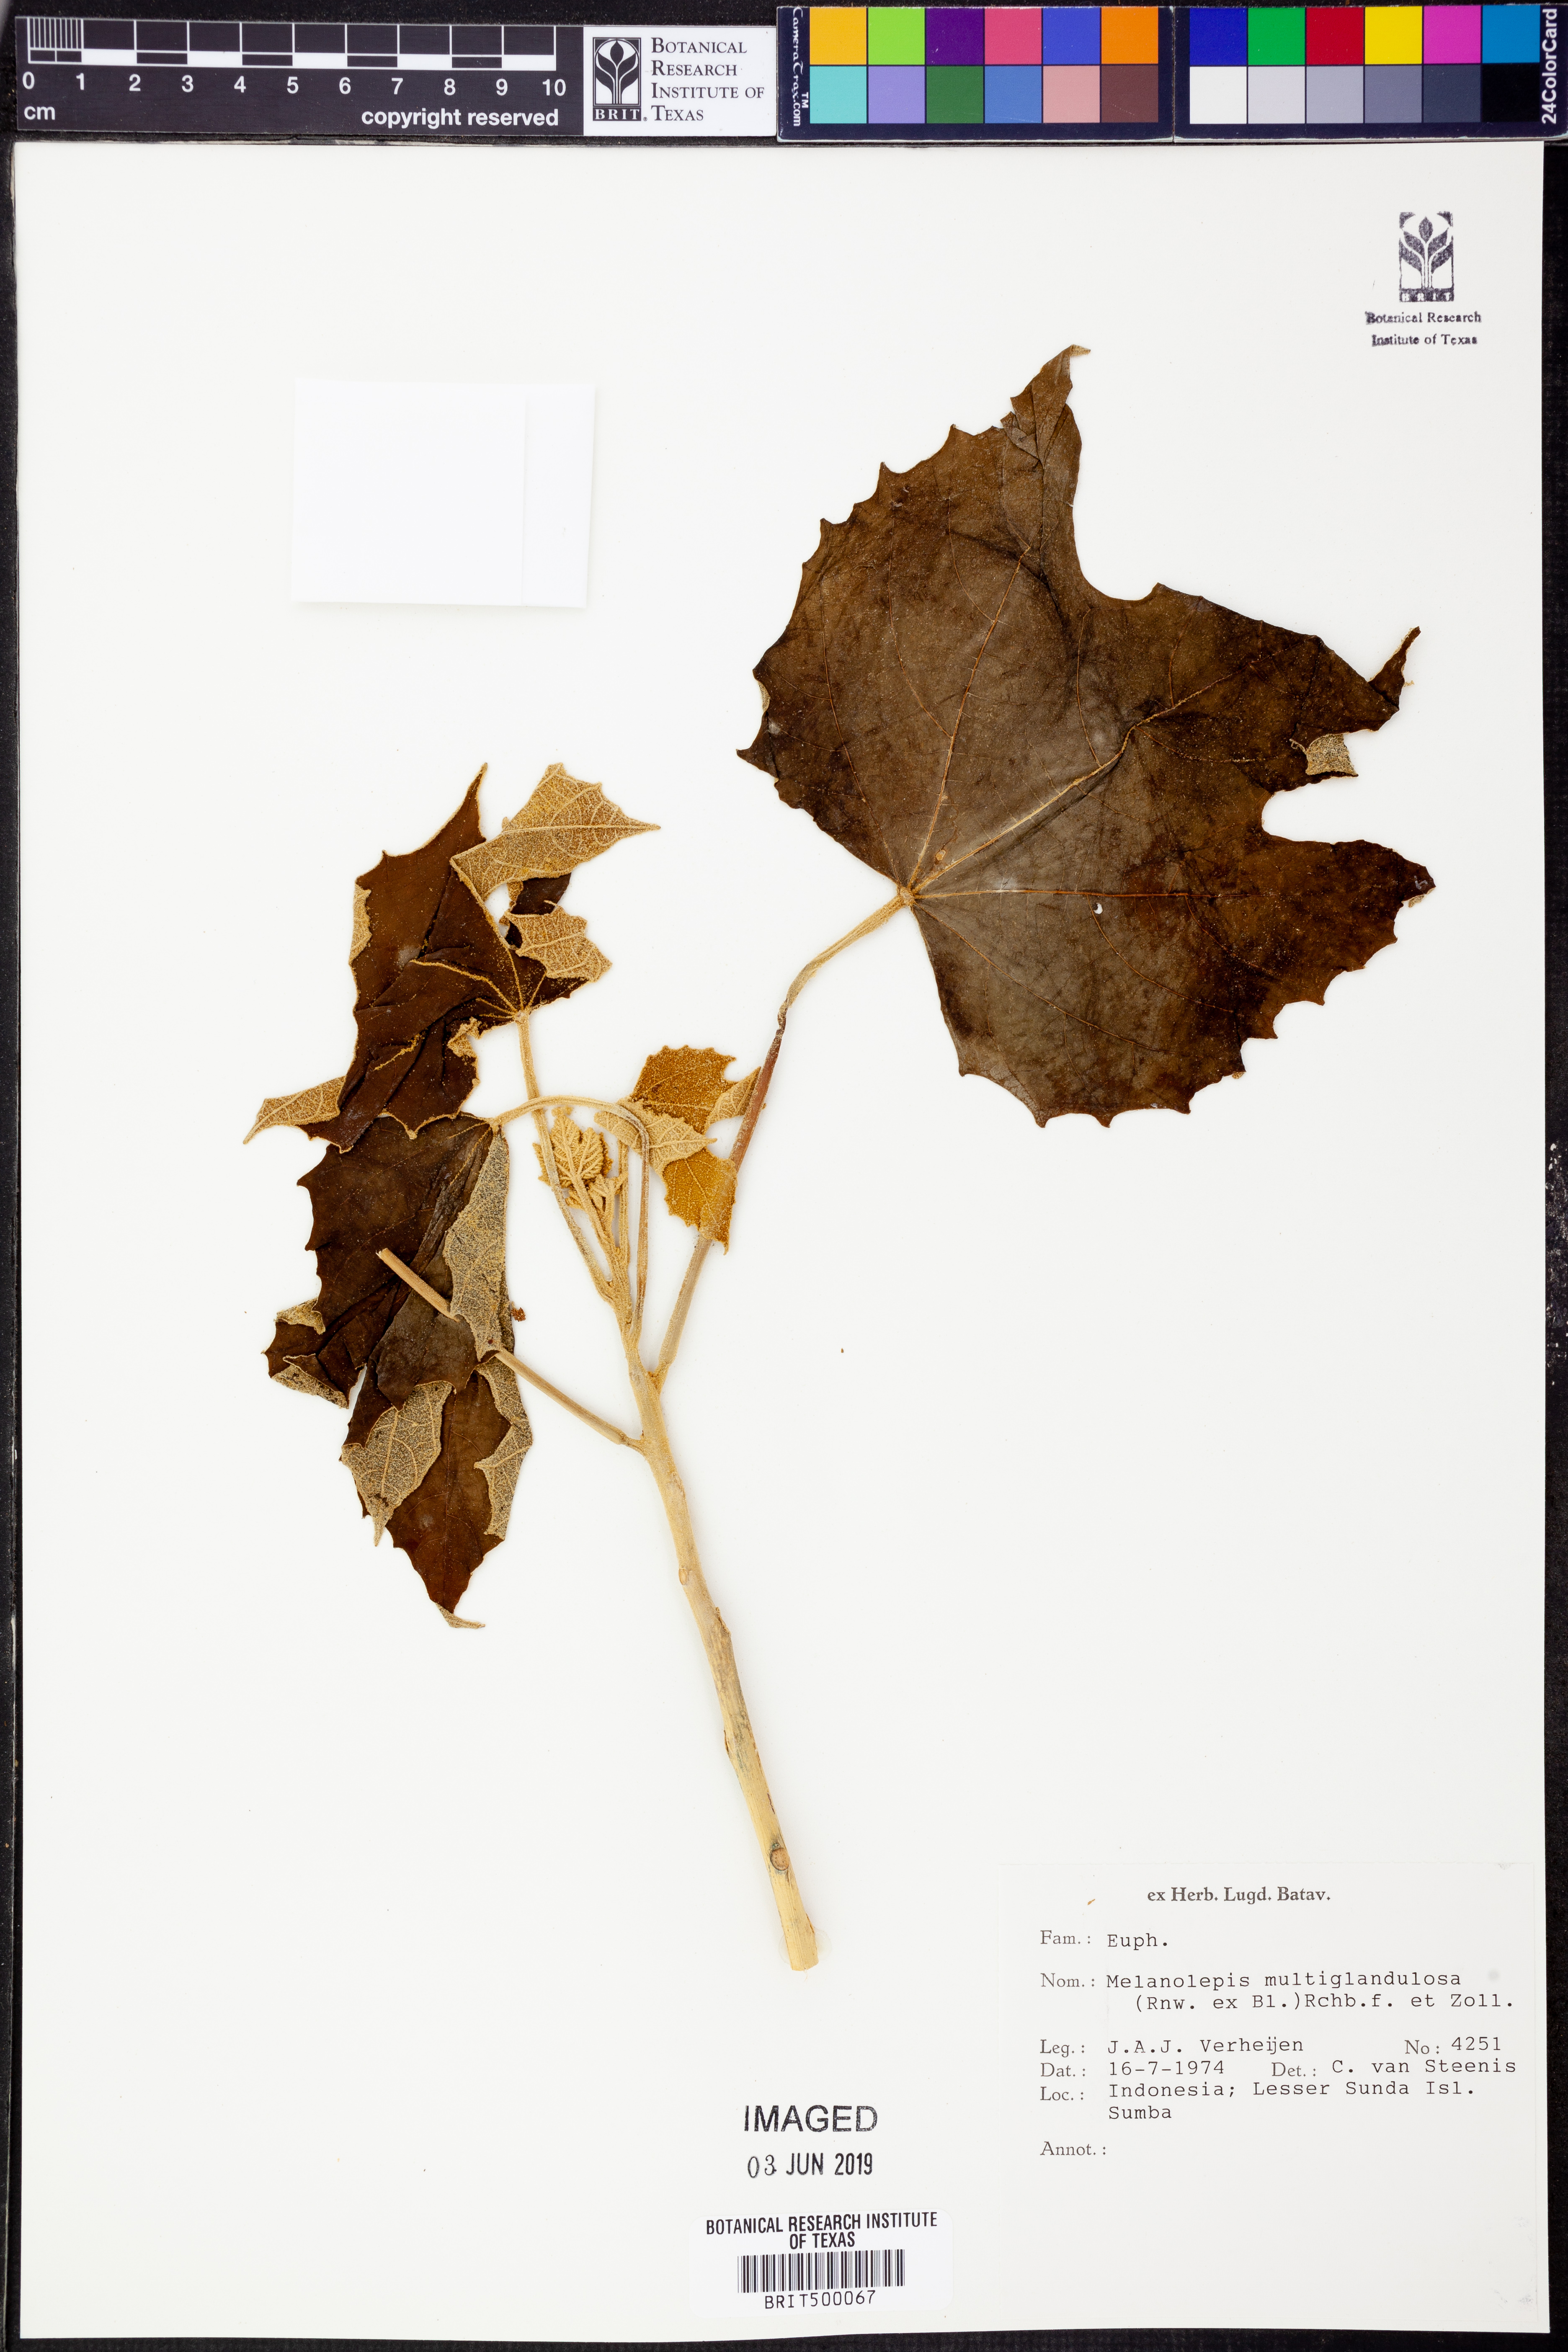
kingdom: Plantae
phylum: Tracheophyta
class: Magnoliopsida
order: Malpighiales
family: Euphorbiaceae
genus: Melanolepis
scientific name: Melanolepis multiglandulosa
